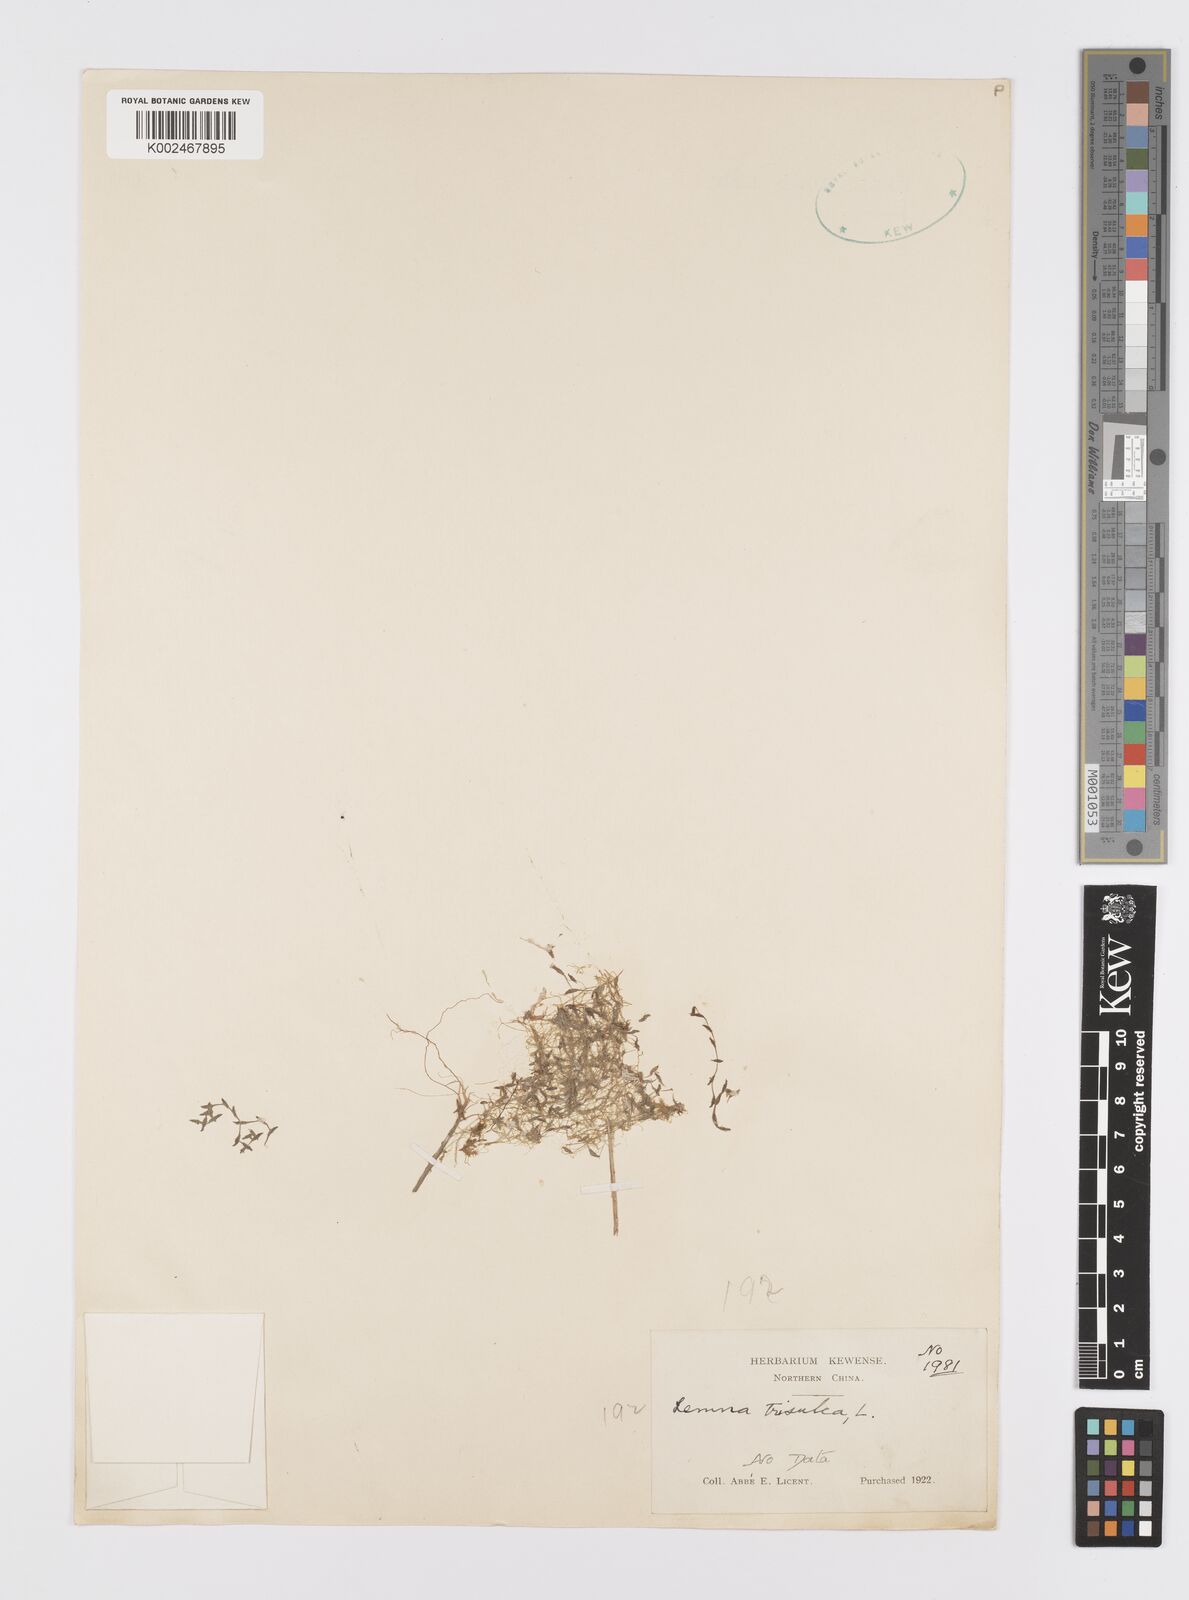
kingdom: Plantae
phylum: Tracheophyta
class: Liliopsida
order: Alismatales
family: Araceae
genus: Lemna
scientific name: Lemna trisulca
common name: Ivy-leaved duckweed
